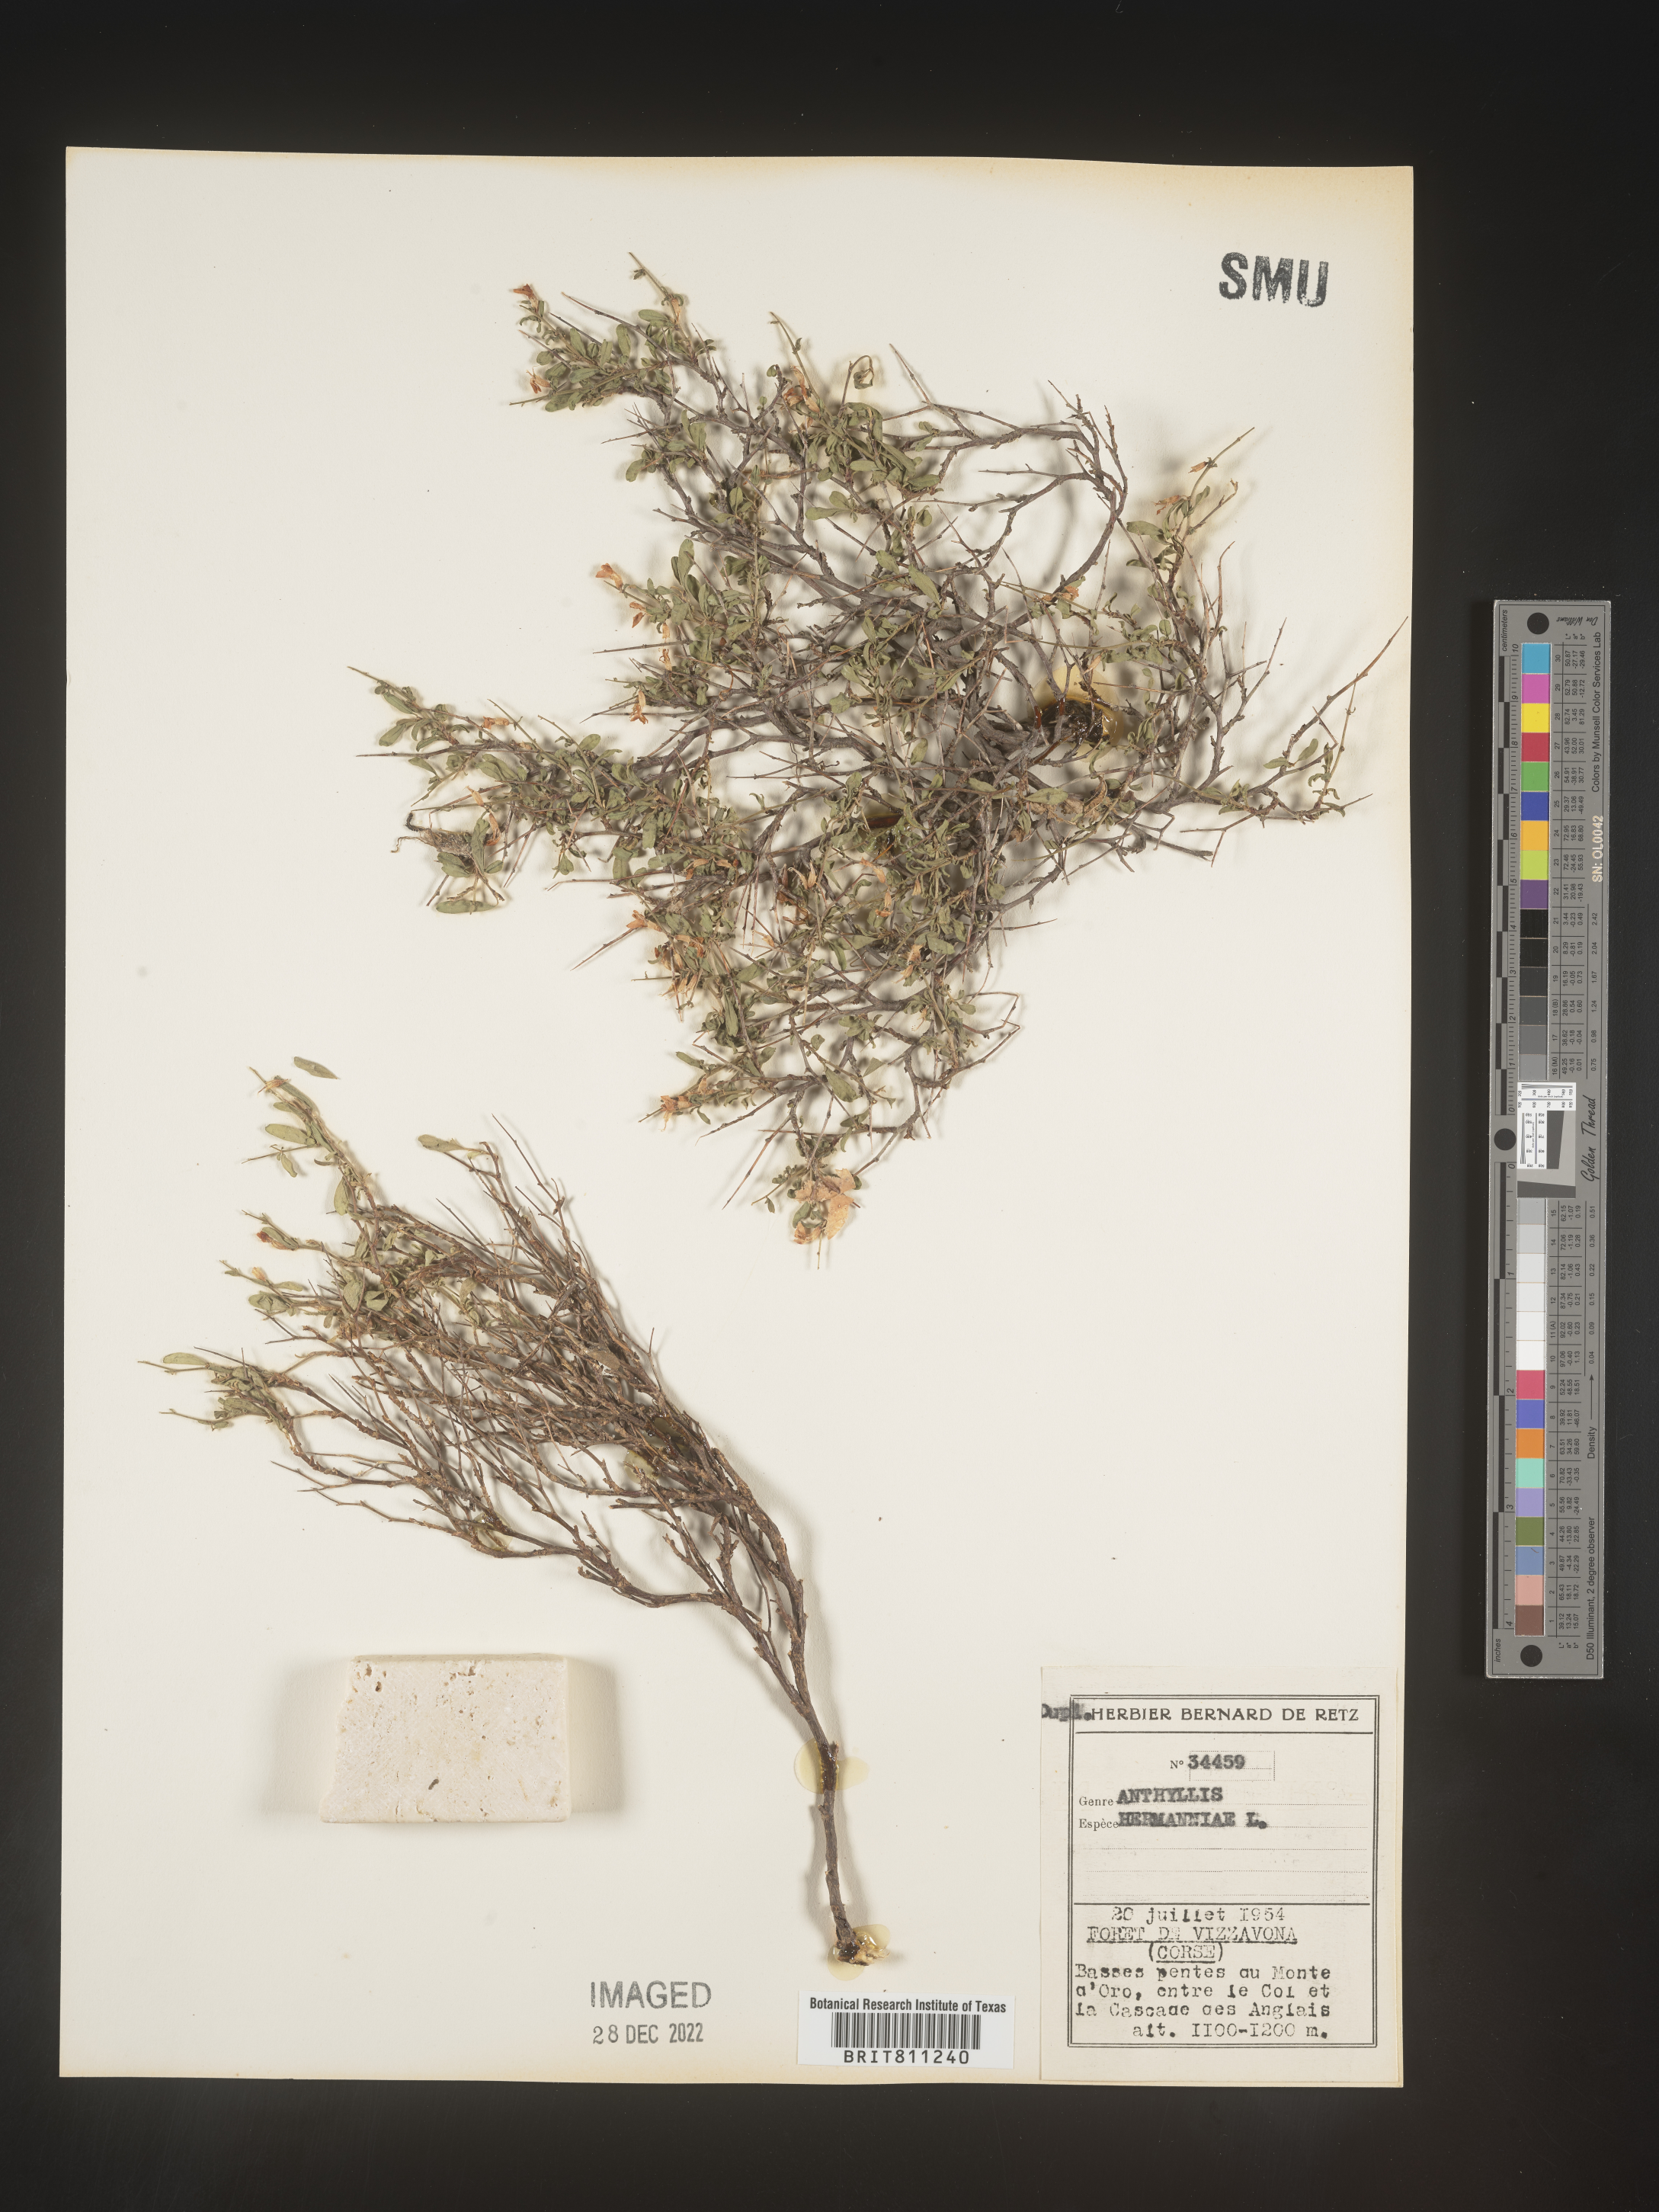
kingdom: Plantae
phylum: Tracheophyta
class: Magnoliopsida
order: Fabales
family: Fabaceae
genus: Anthyllis
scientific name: Anthyllis
